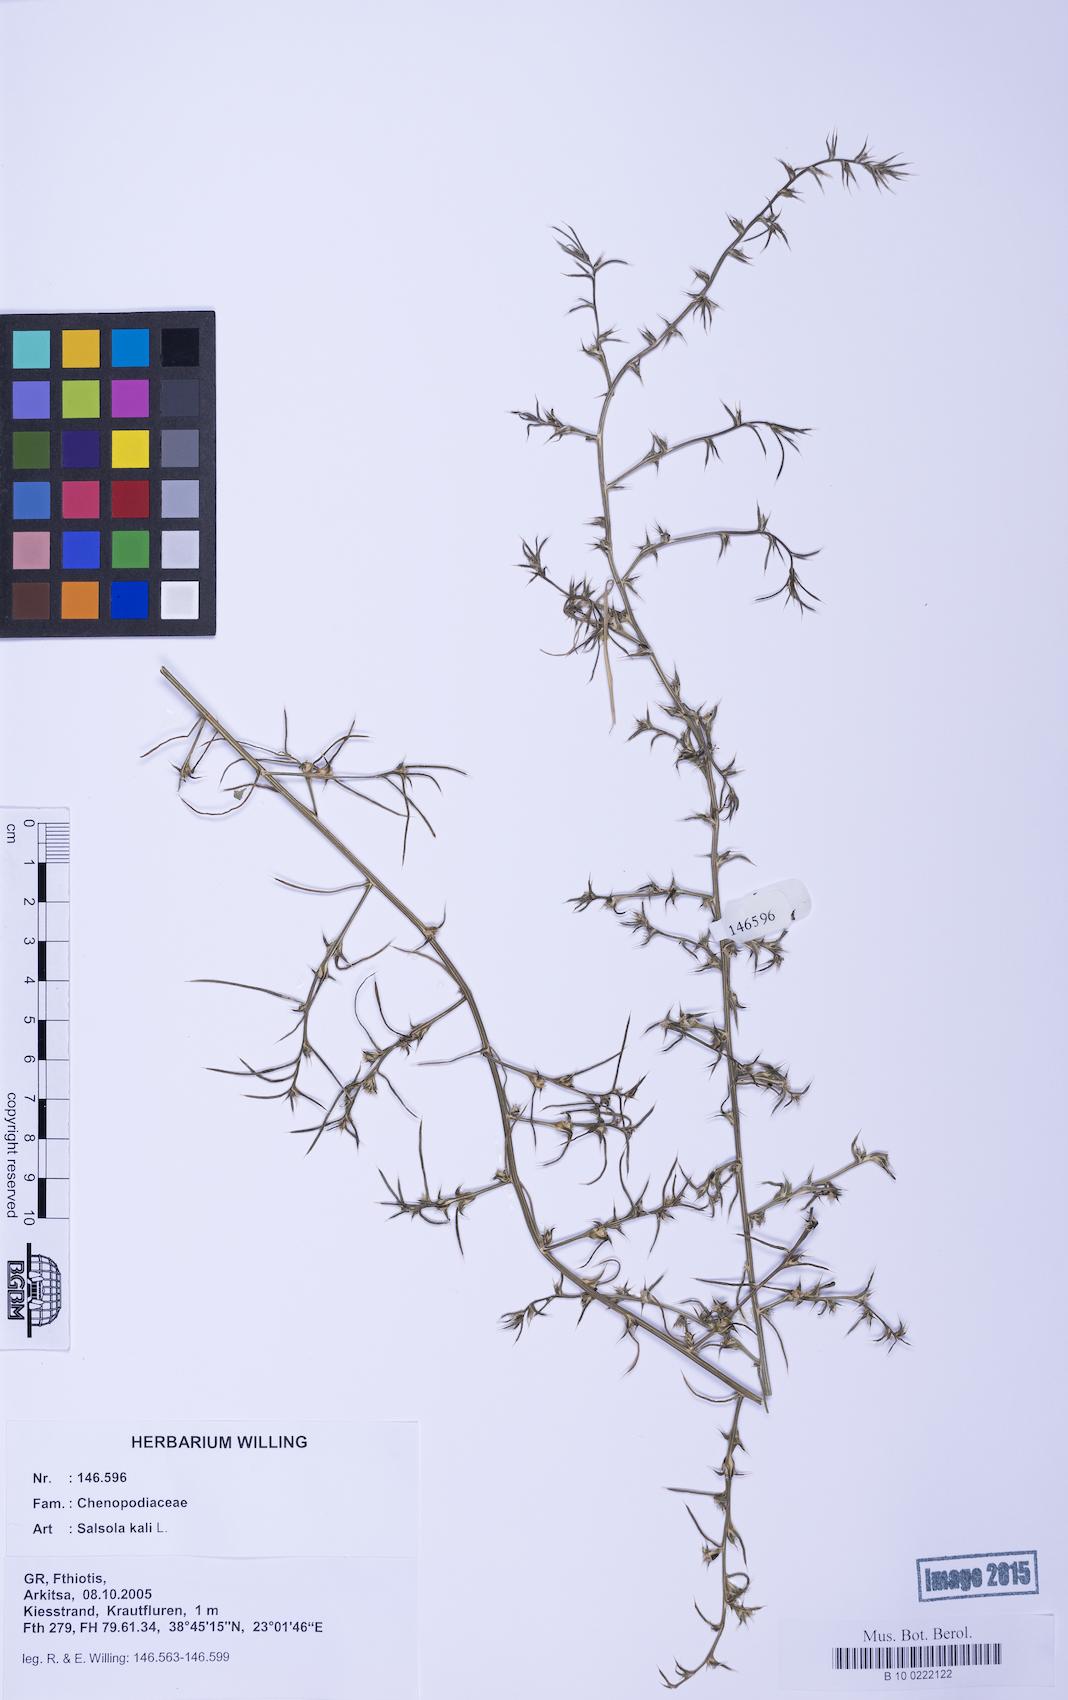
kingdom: Plantae
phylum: Tracheophyta
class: Magnoliopsida
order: Caryophyllales
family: Amaranthaceae
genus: Salsola
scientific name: Salsola kali
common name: Saltwort
